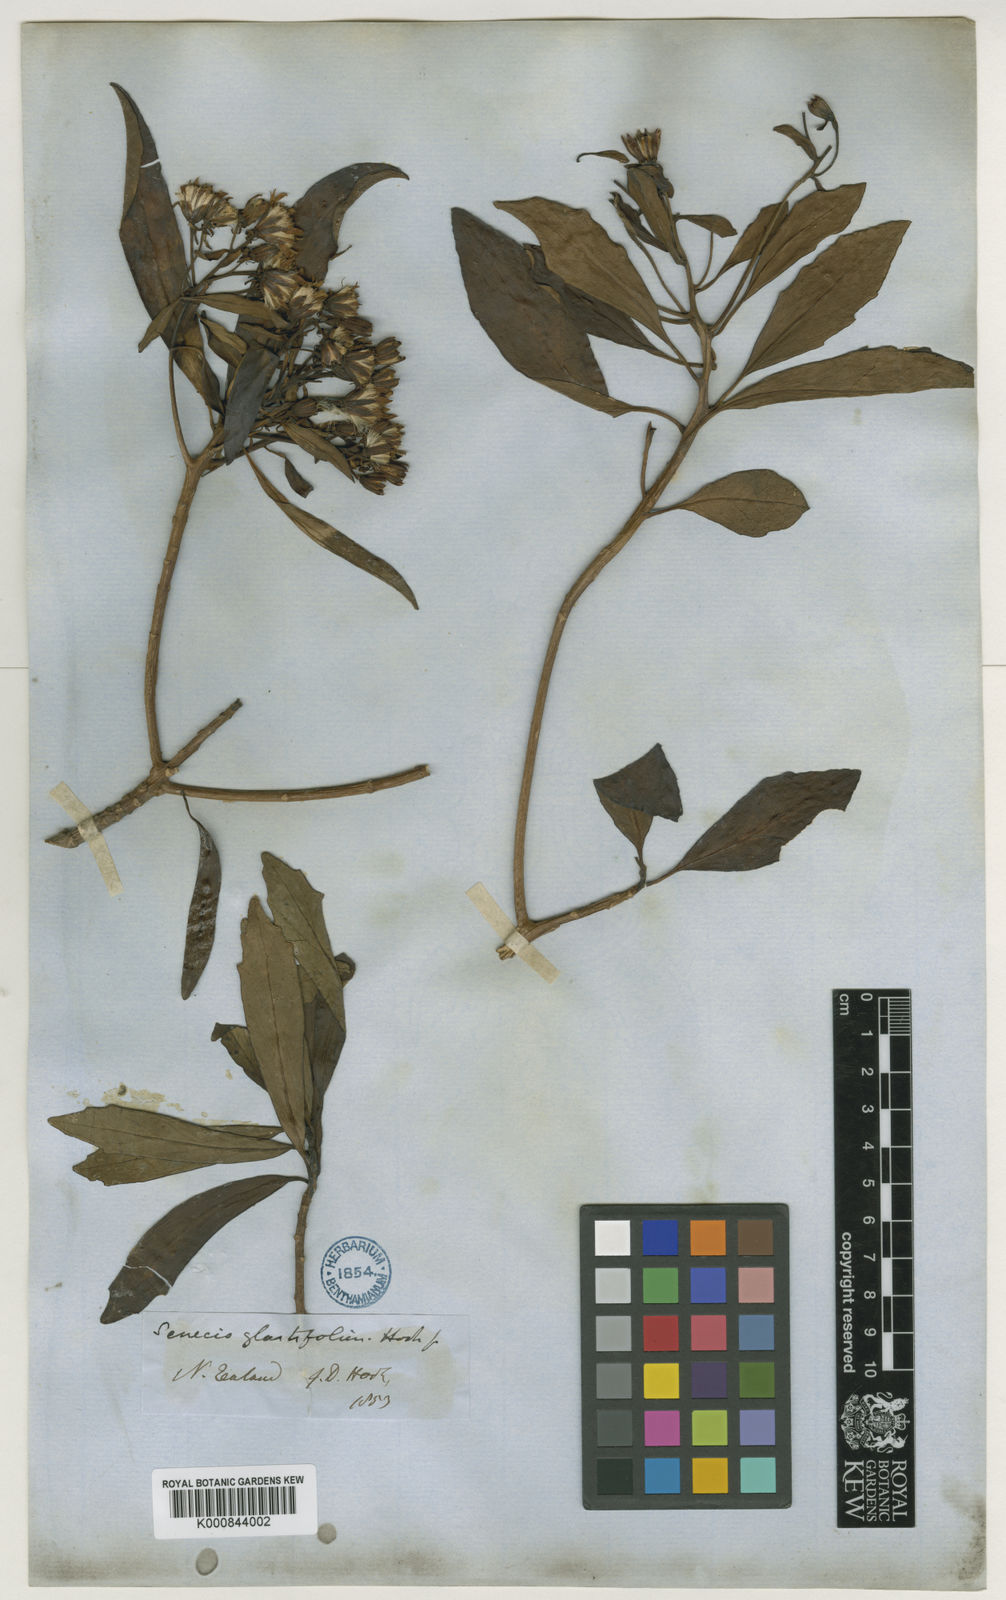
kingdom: Plantae
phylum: Tracheophyta
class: Magnoliopsida
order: Asterales
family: Asteraceae
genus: Brachyglottis
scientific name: Brachyglottis kirkii
